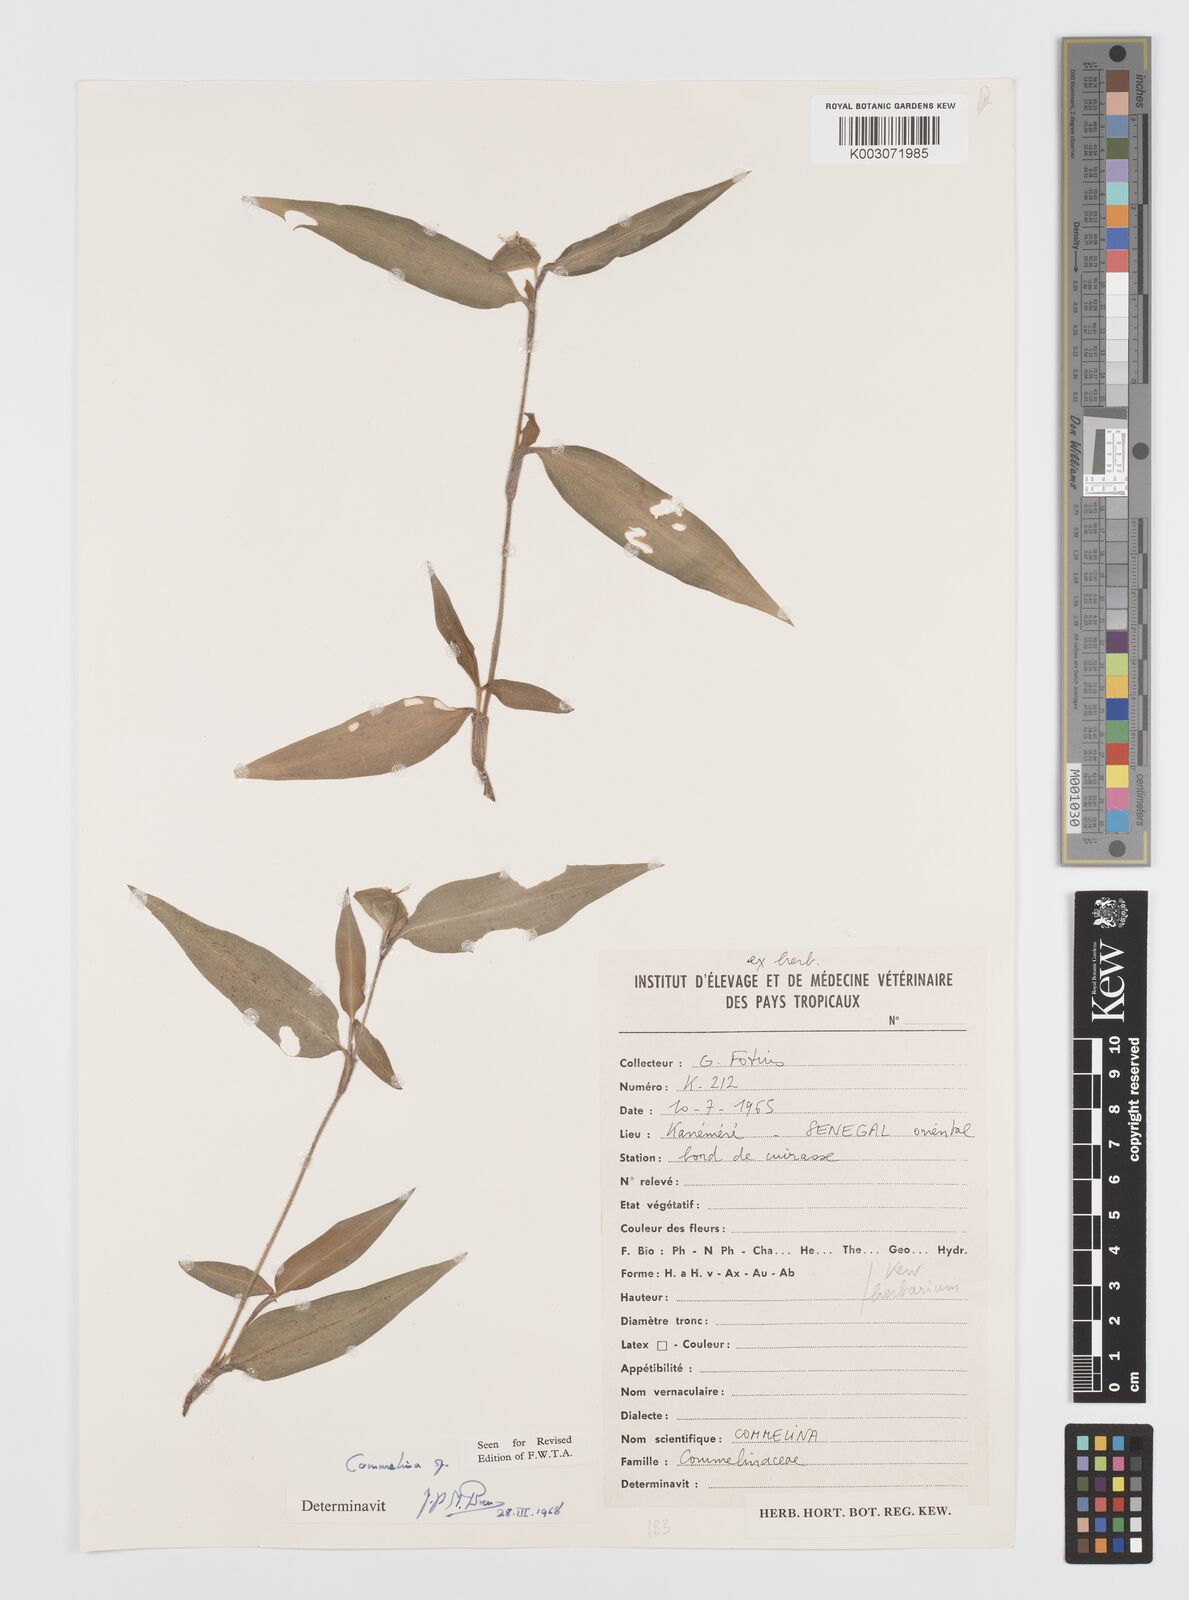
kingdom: Plantae
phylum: Tracheophyta
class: Liliopsida
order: Commelinales
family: Commelinaceae
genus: Commelina
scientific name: Commelina
